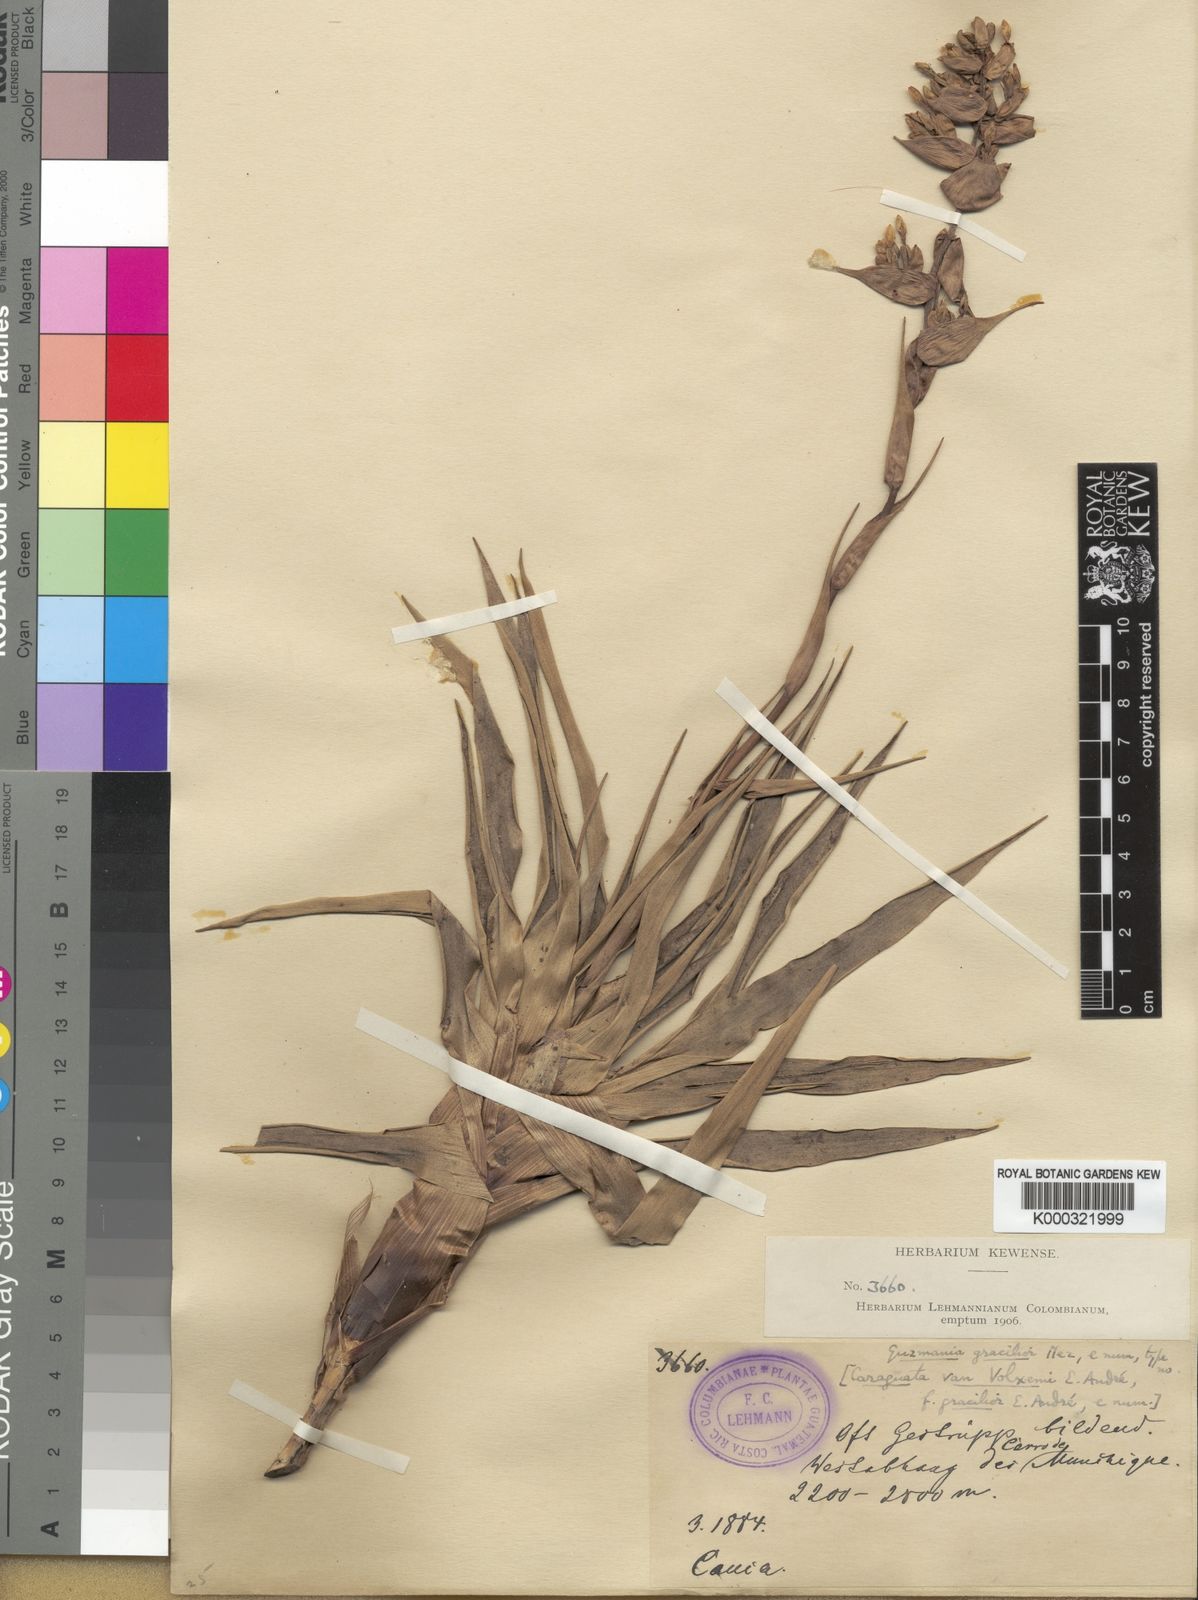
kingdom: Plantae
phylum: Tracheophyta
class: Liliopsida
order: Poales
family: Bromeliaceae
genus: Guzmania
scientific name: Guzmania gracilior
